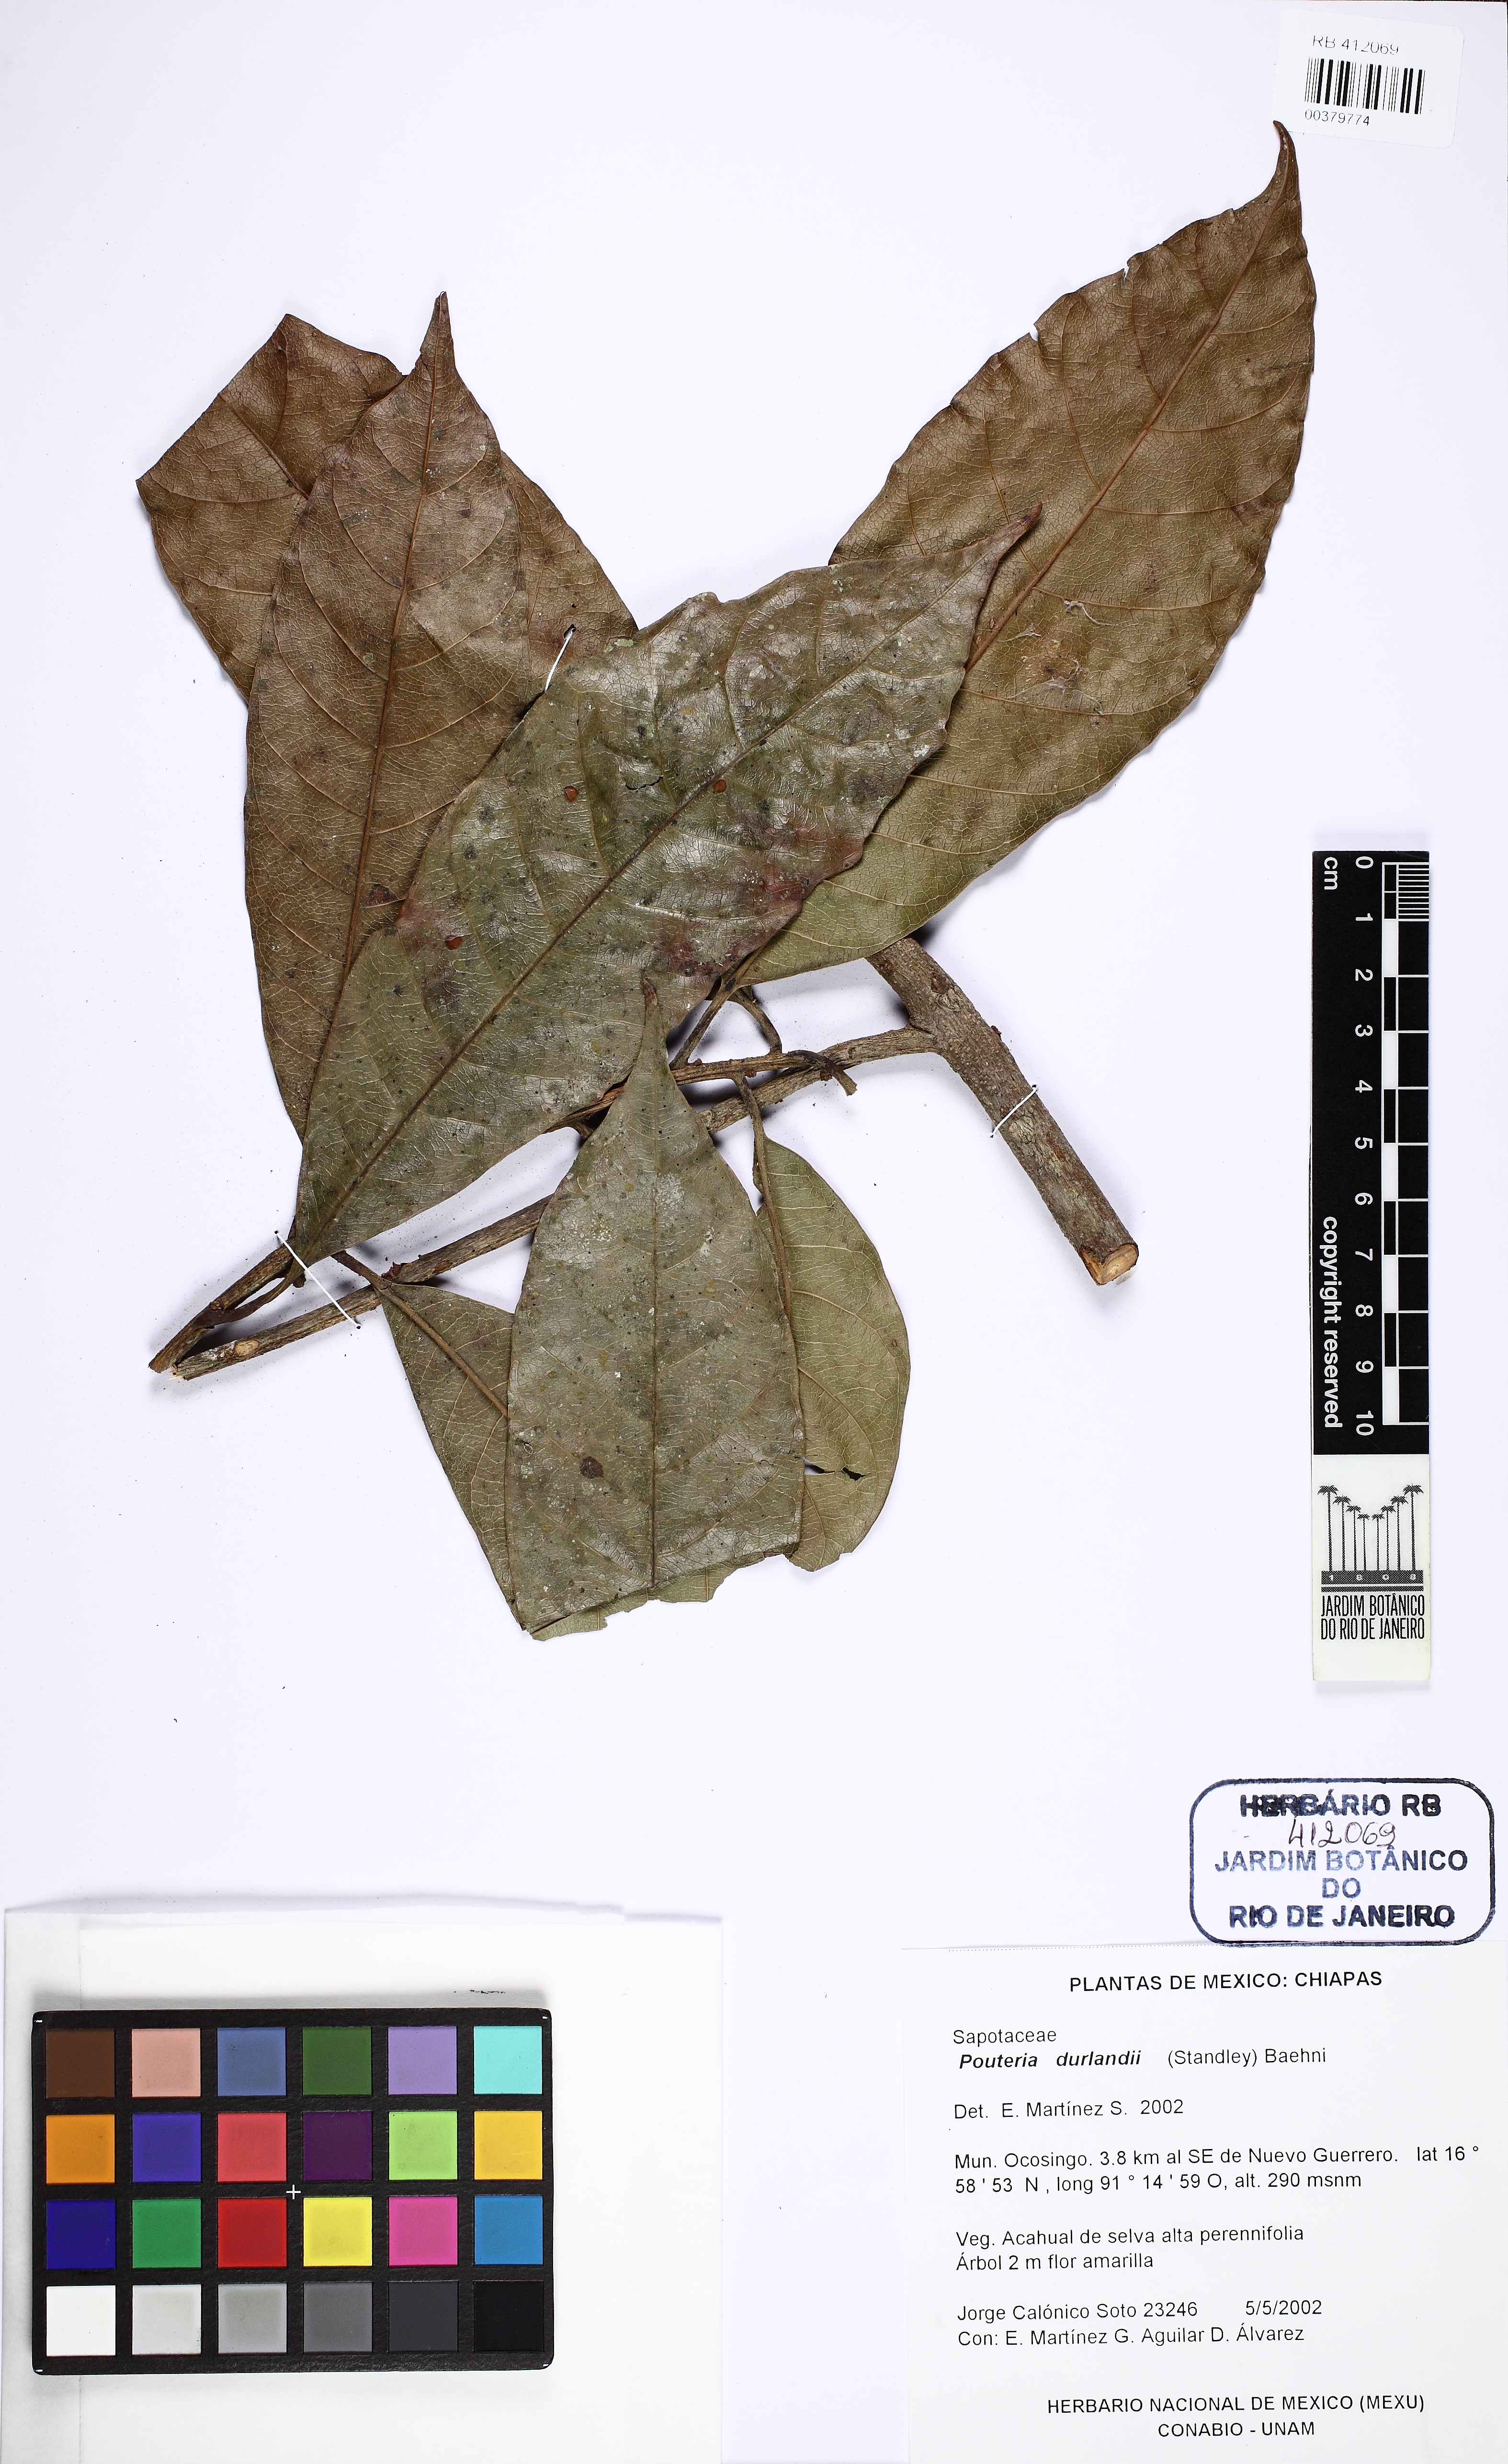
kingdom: Plantae
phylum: Tracheophyta
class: Magnoliopsida
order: Ericales
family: Sapotaceae
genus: Pouteria
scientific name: Pouteria durlandii
